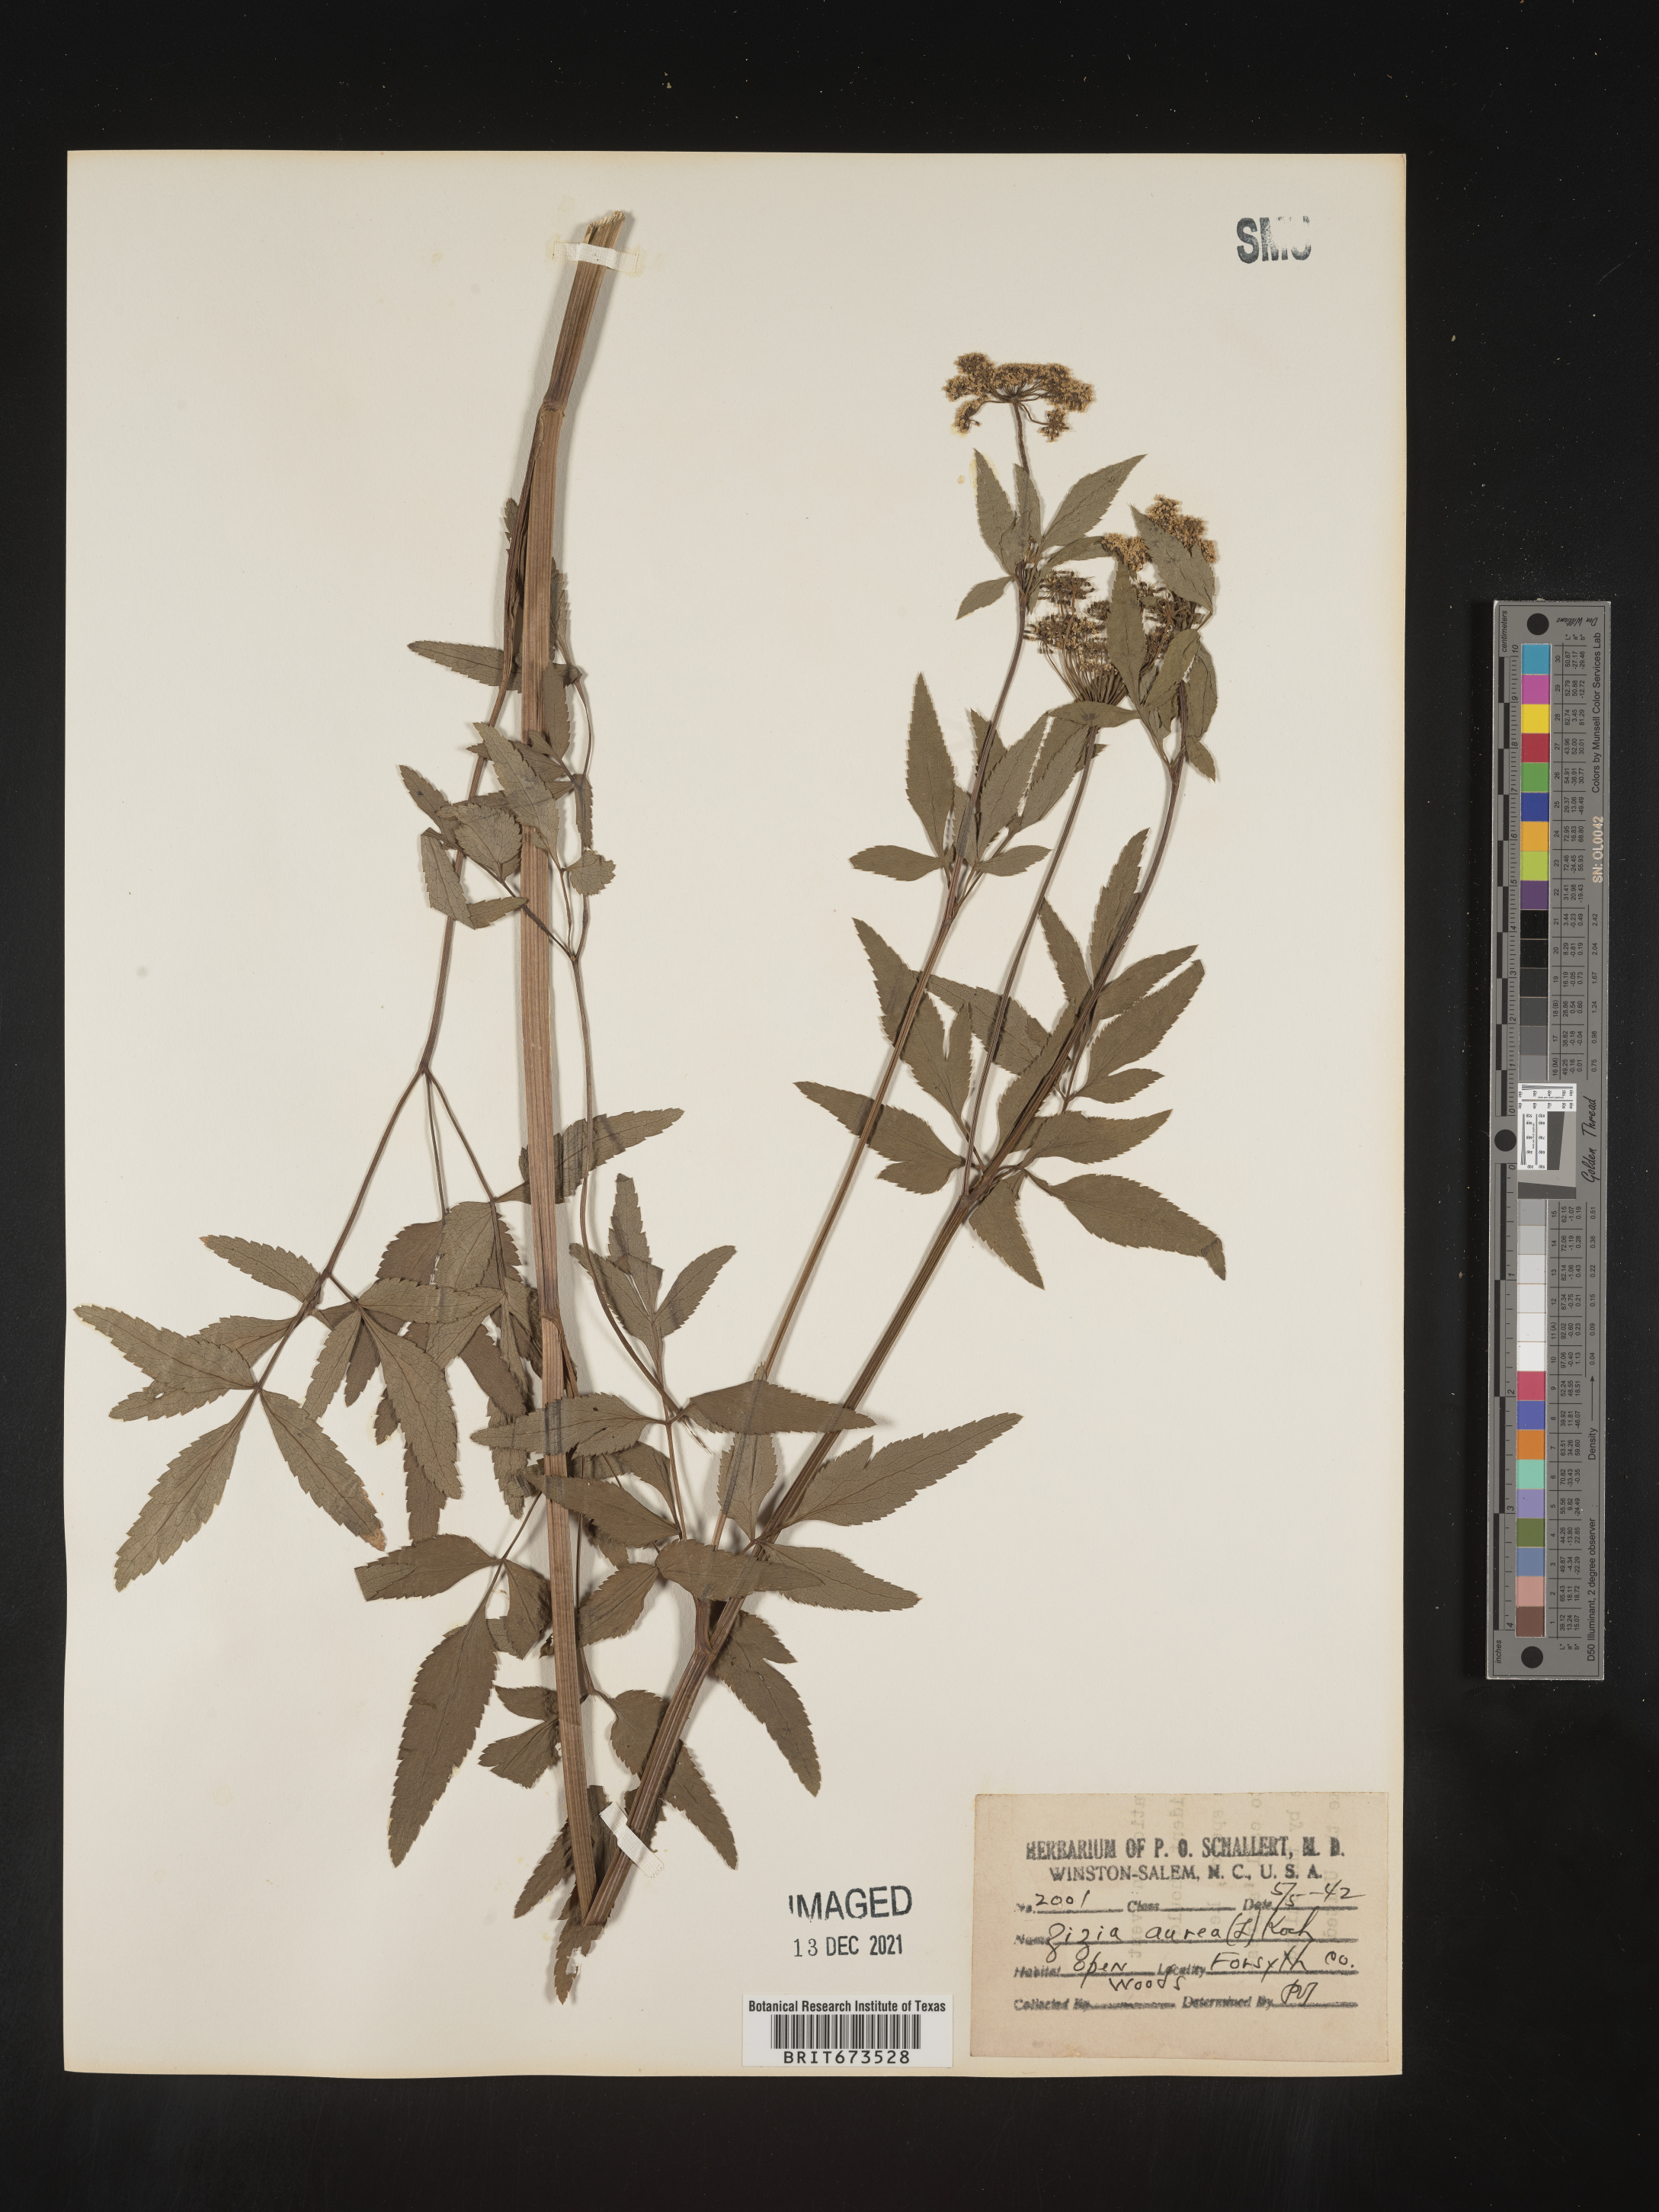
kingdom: Plantae
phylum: Tracheophyta
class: Magnoliopsida
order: Apiales
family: Apiaceae
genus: Zizia
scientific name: Zizia aurea
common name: Golden alexanders
